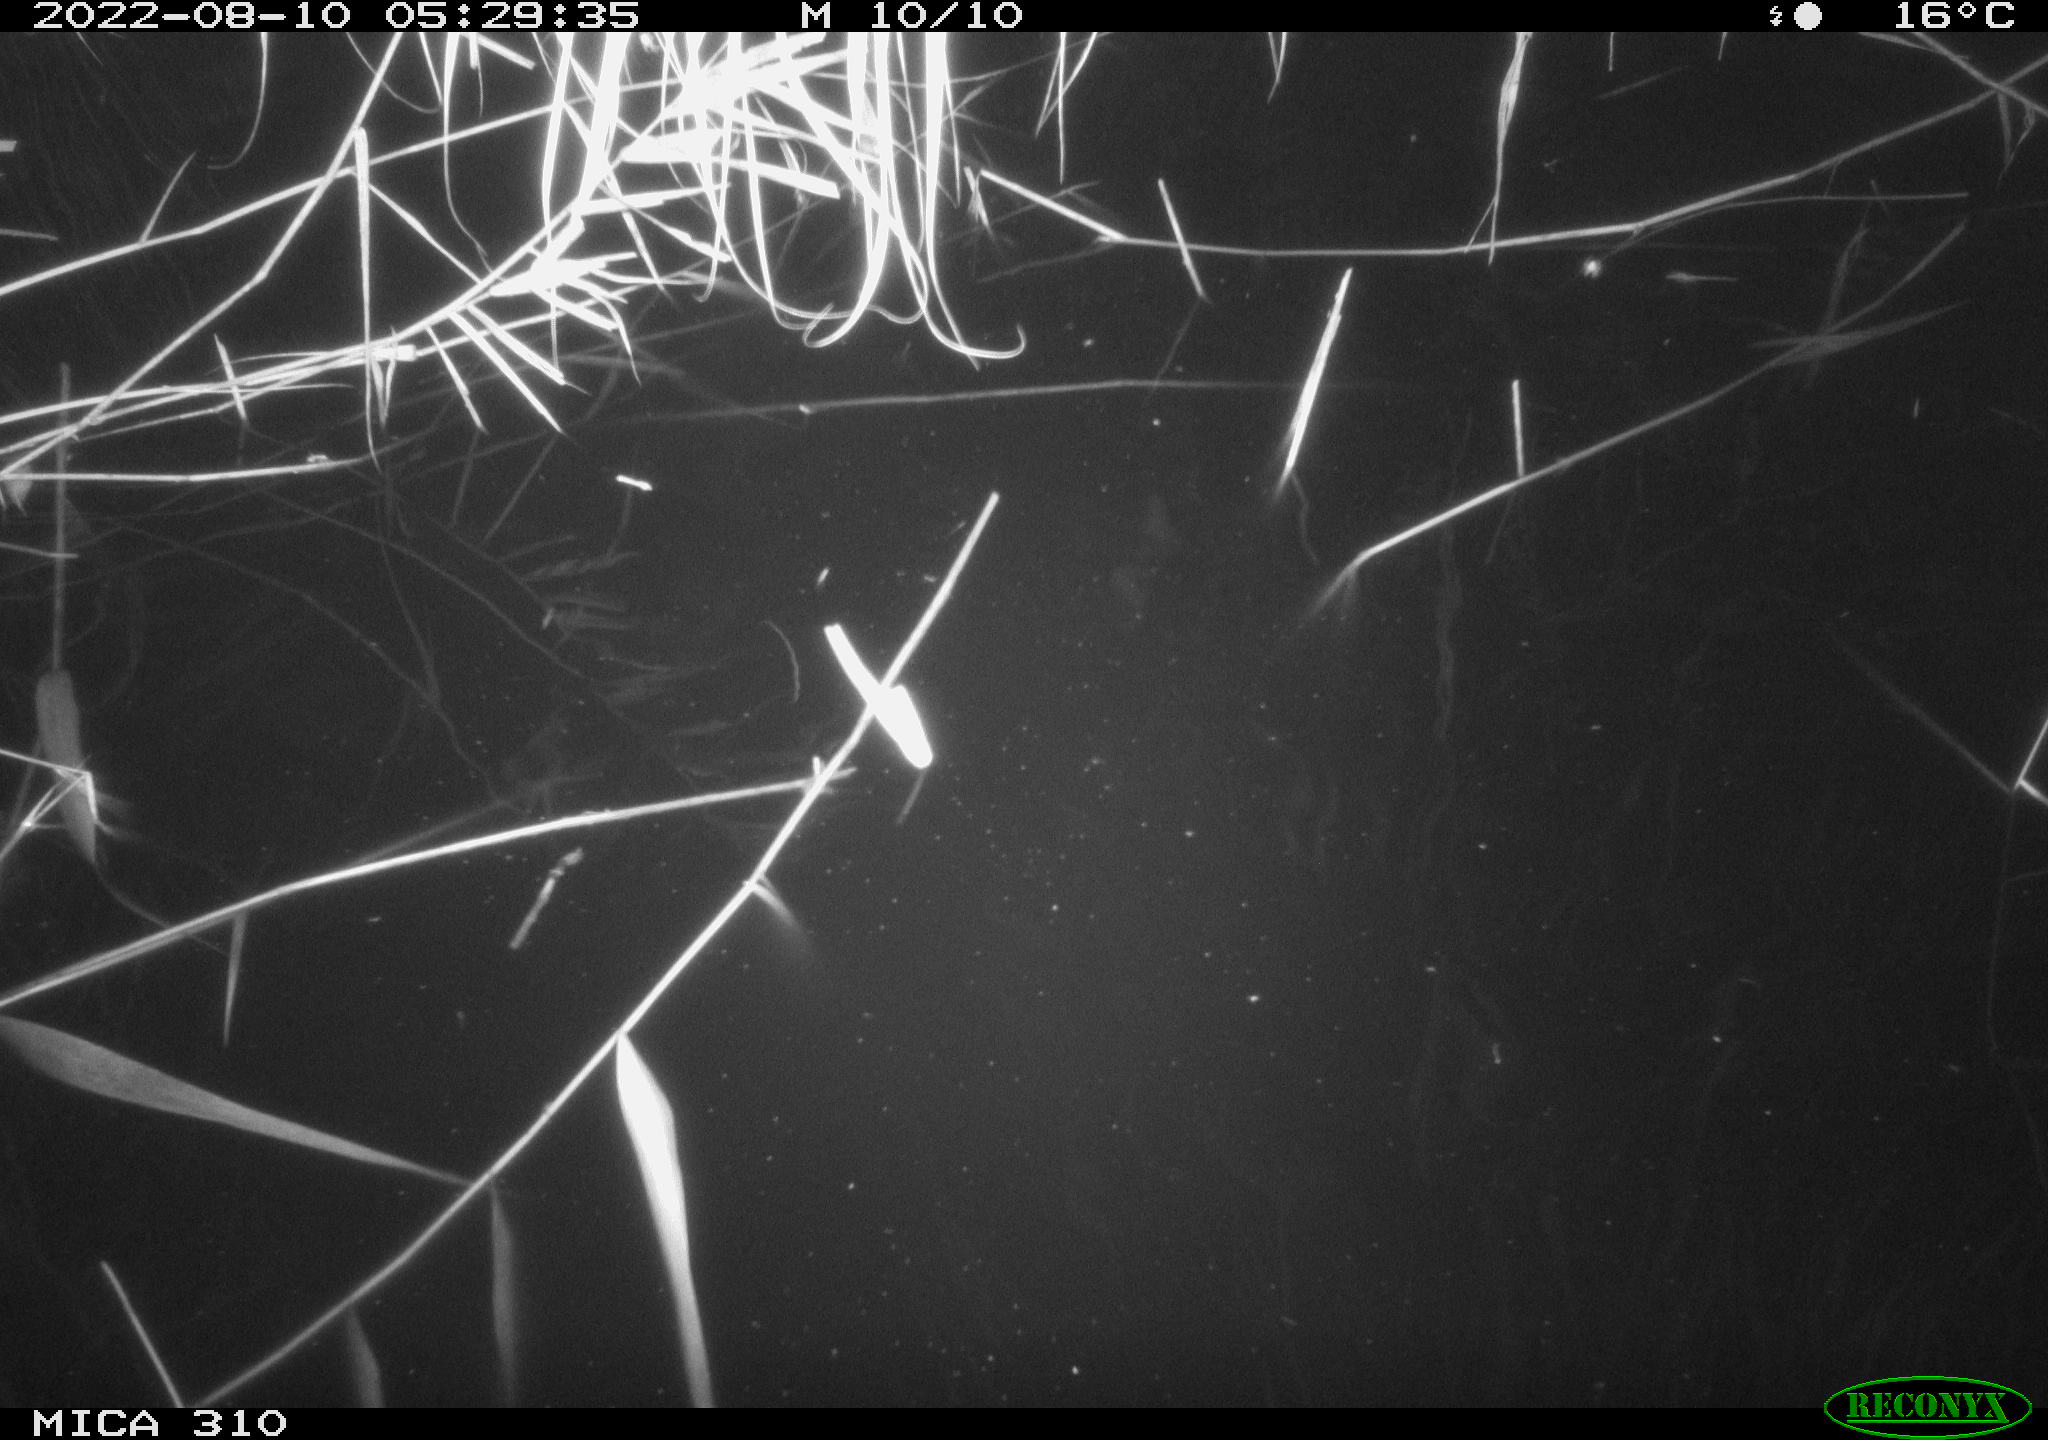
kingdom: Animalia
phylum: Chordata
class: Aves
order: Gruiformes
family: Rallidae
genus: Gallinula
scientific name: Gallinula chloropus
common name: Common moorhen
